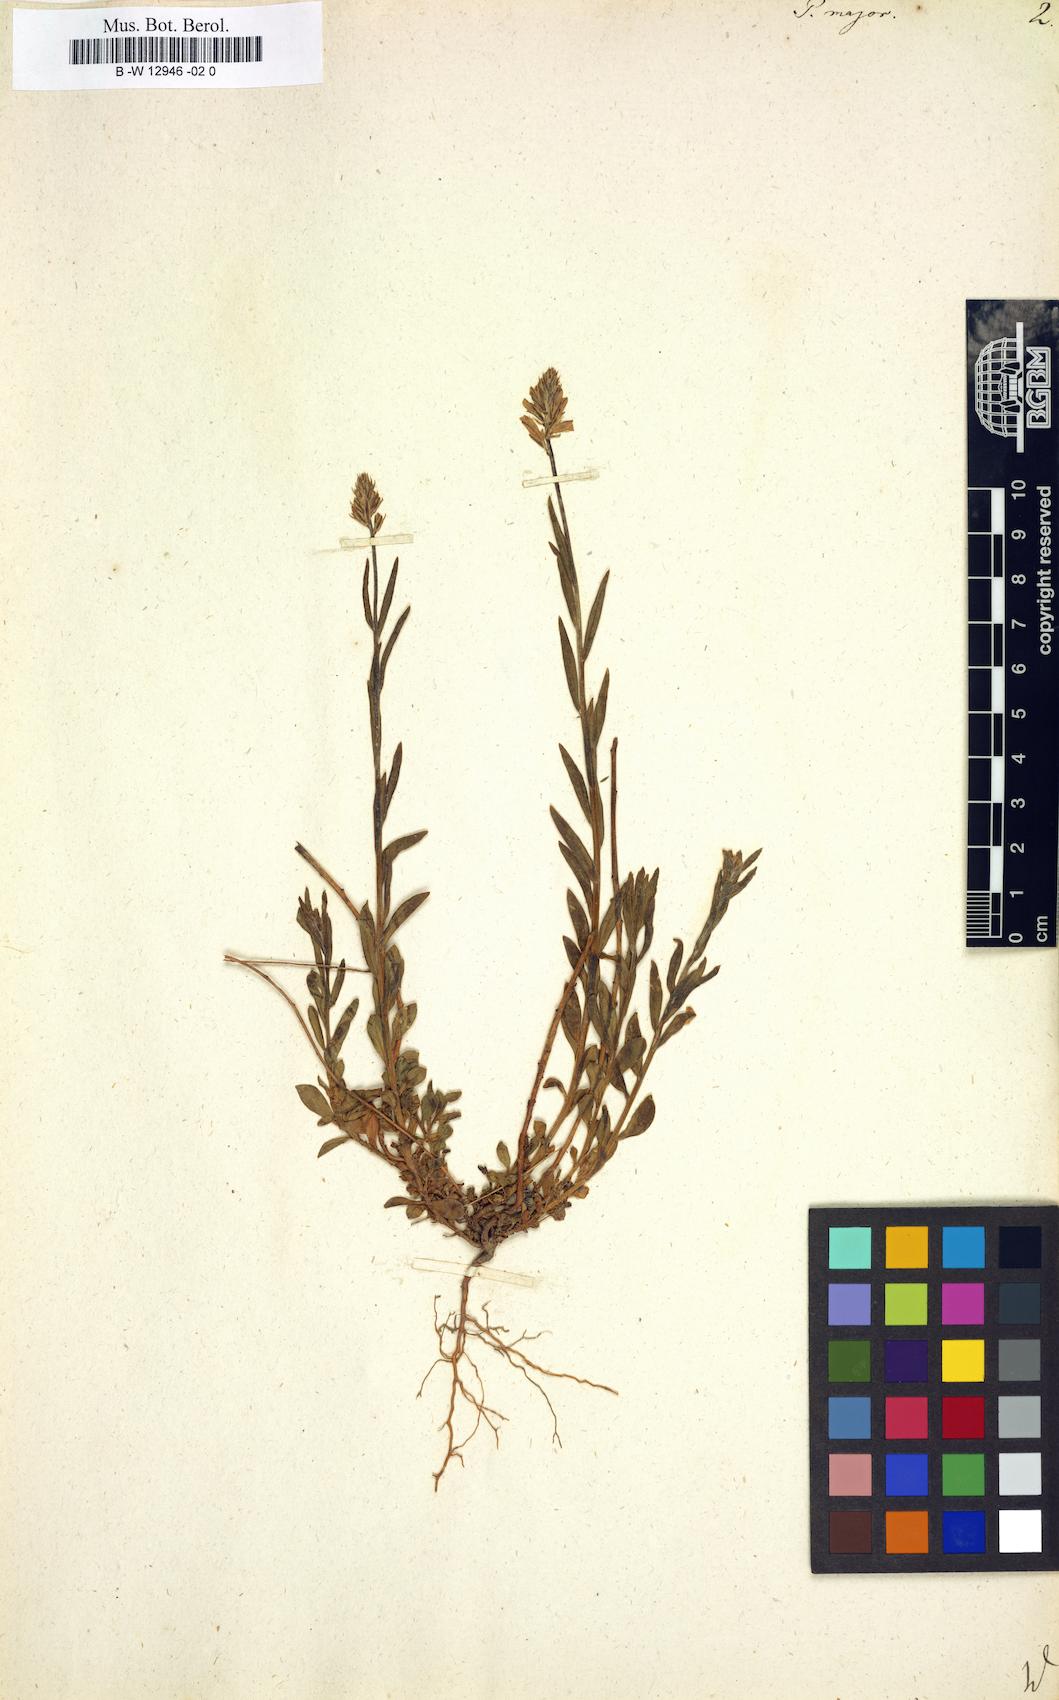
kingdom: Plantae
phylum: Tracheophyta
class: Magnoliopsida
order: Fabales
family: Polygalaceae
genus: Polygala
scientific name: Polygala major
